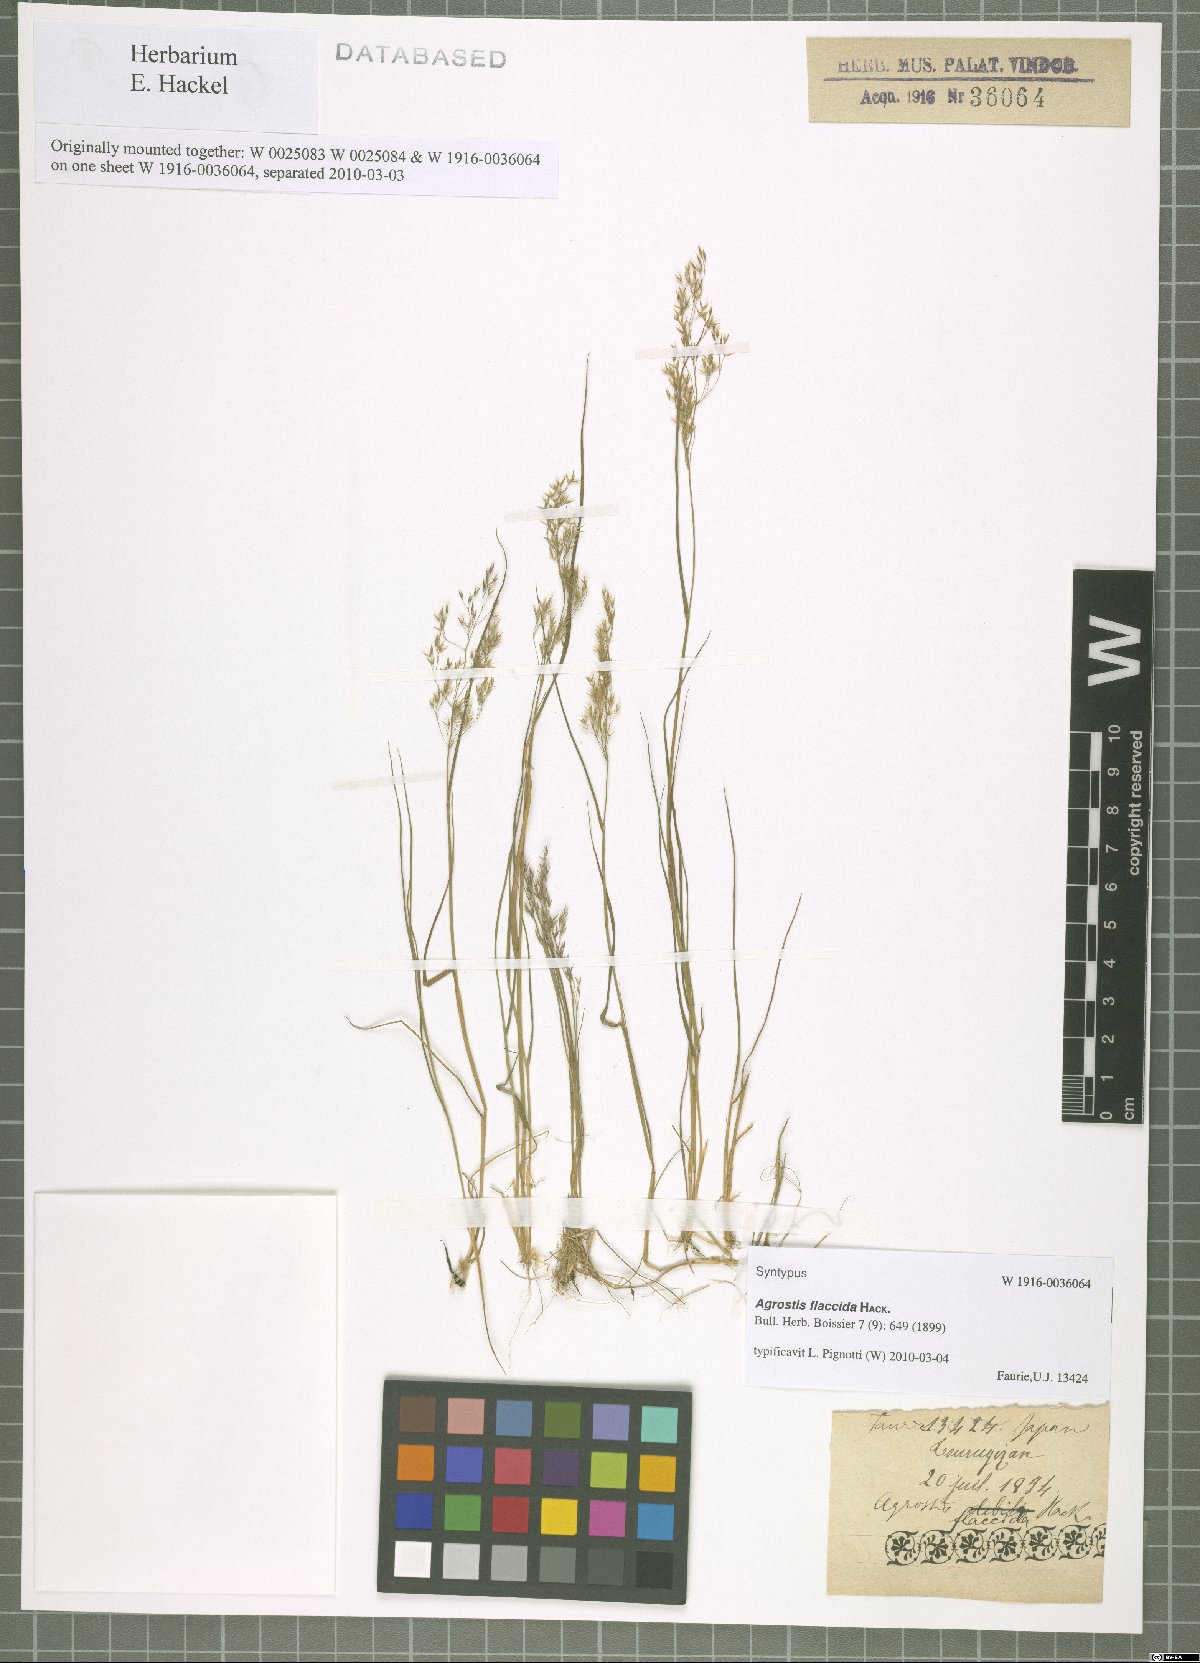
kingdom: Plantae
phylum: Tracheophyta
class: Liliopsida
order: Poales
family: Poaceae
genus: Agrostis
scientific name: Agrostis flaccida
